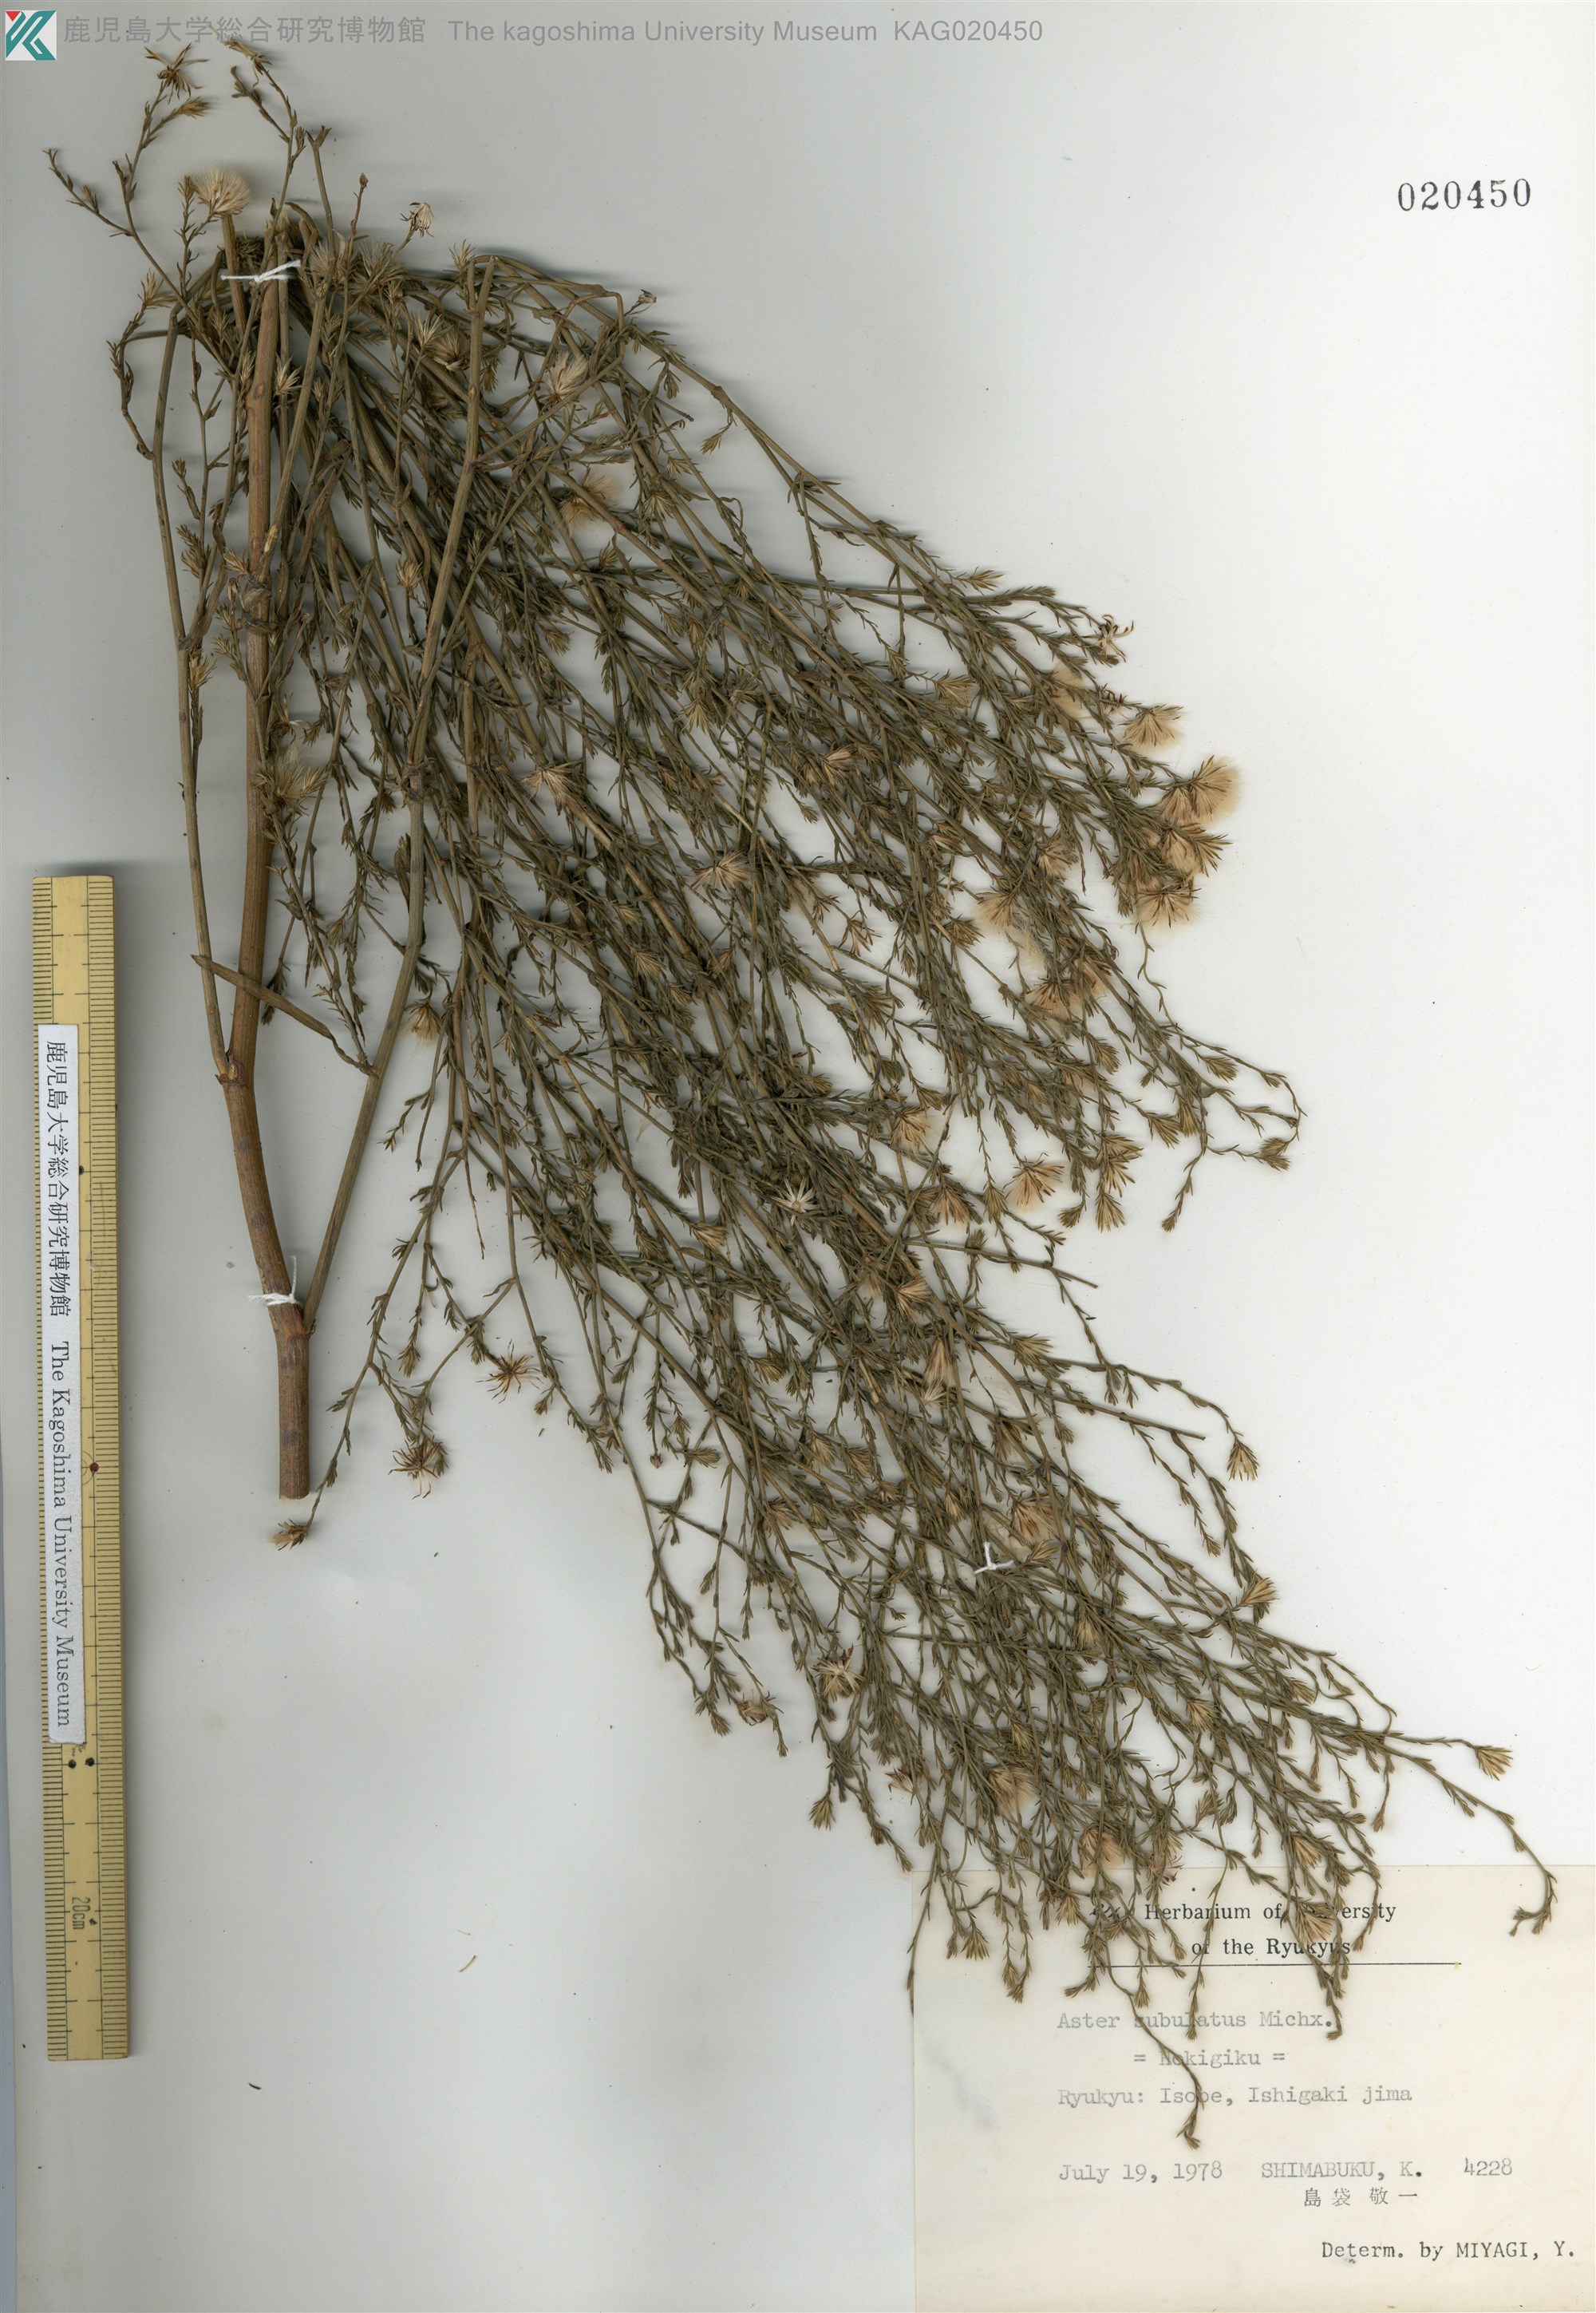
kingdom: Plantae
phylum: Tracheophyta
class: Magnoliopsida
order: Asterales
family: Asteraceae
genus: Symphyotrichum
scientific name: Symphyotrichum subulatum
